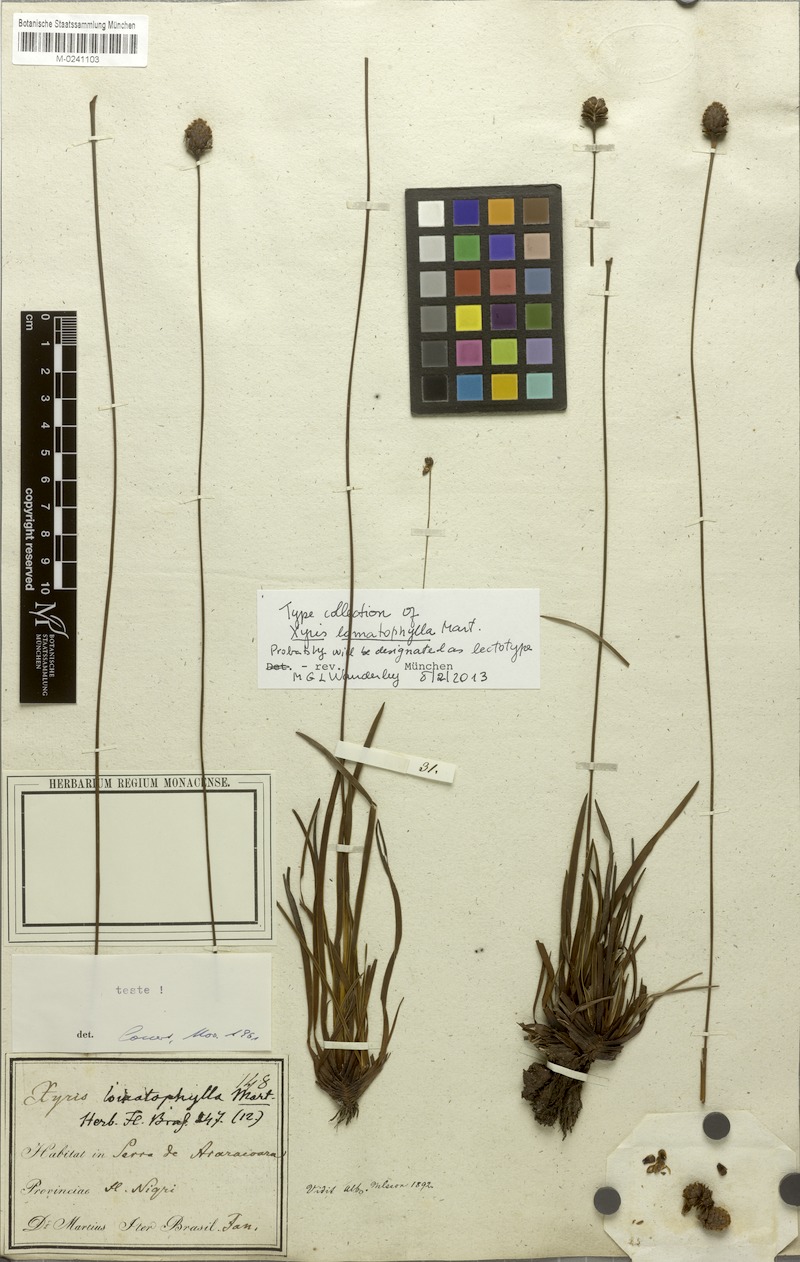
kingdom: Plantae
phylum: Tracheophyta
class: Liliopsida
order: Poales
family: Xyridaceae
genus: Xyris
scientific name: Xyris lomatophylla
